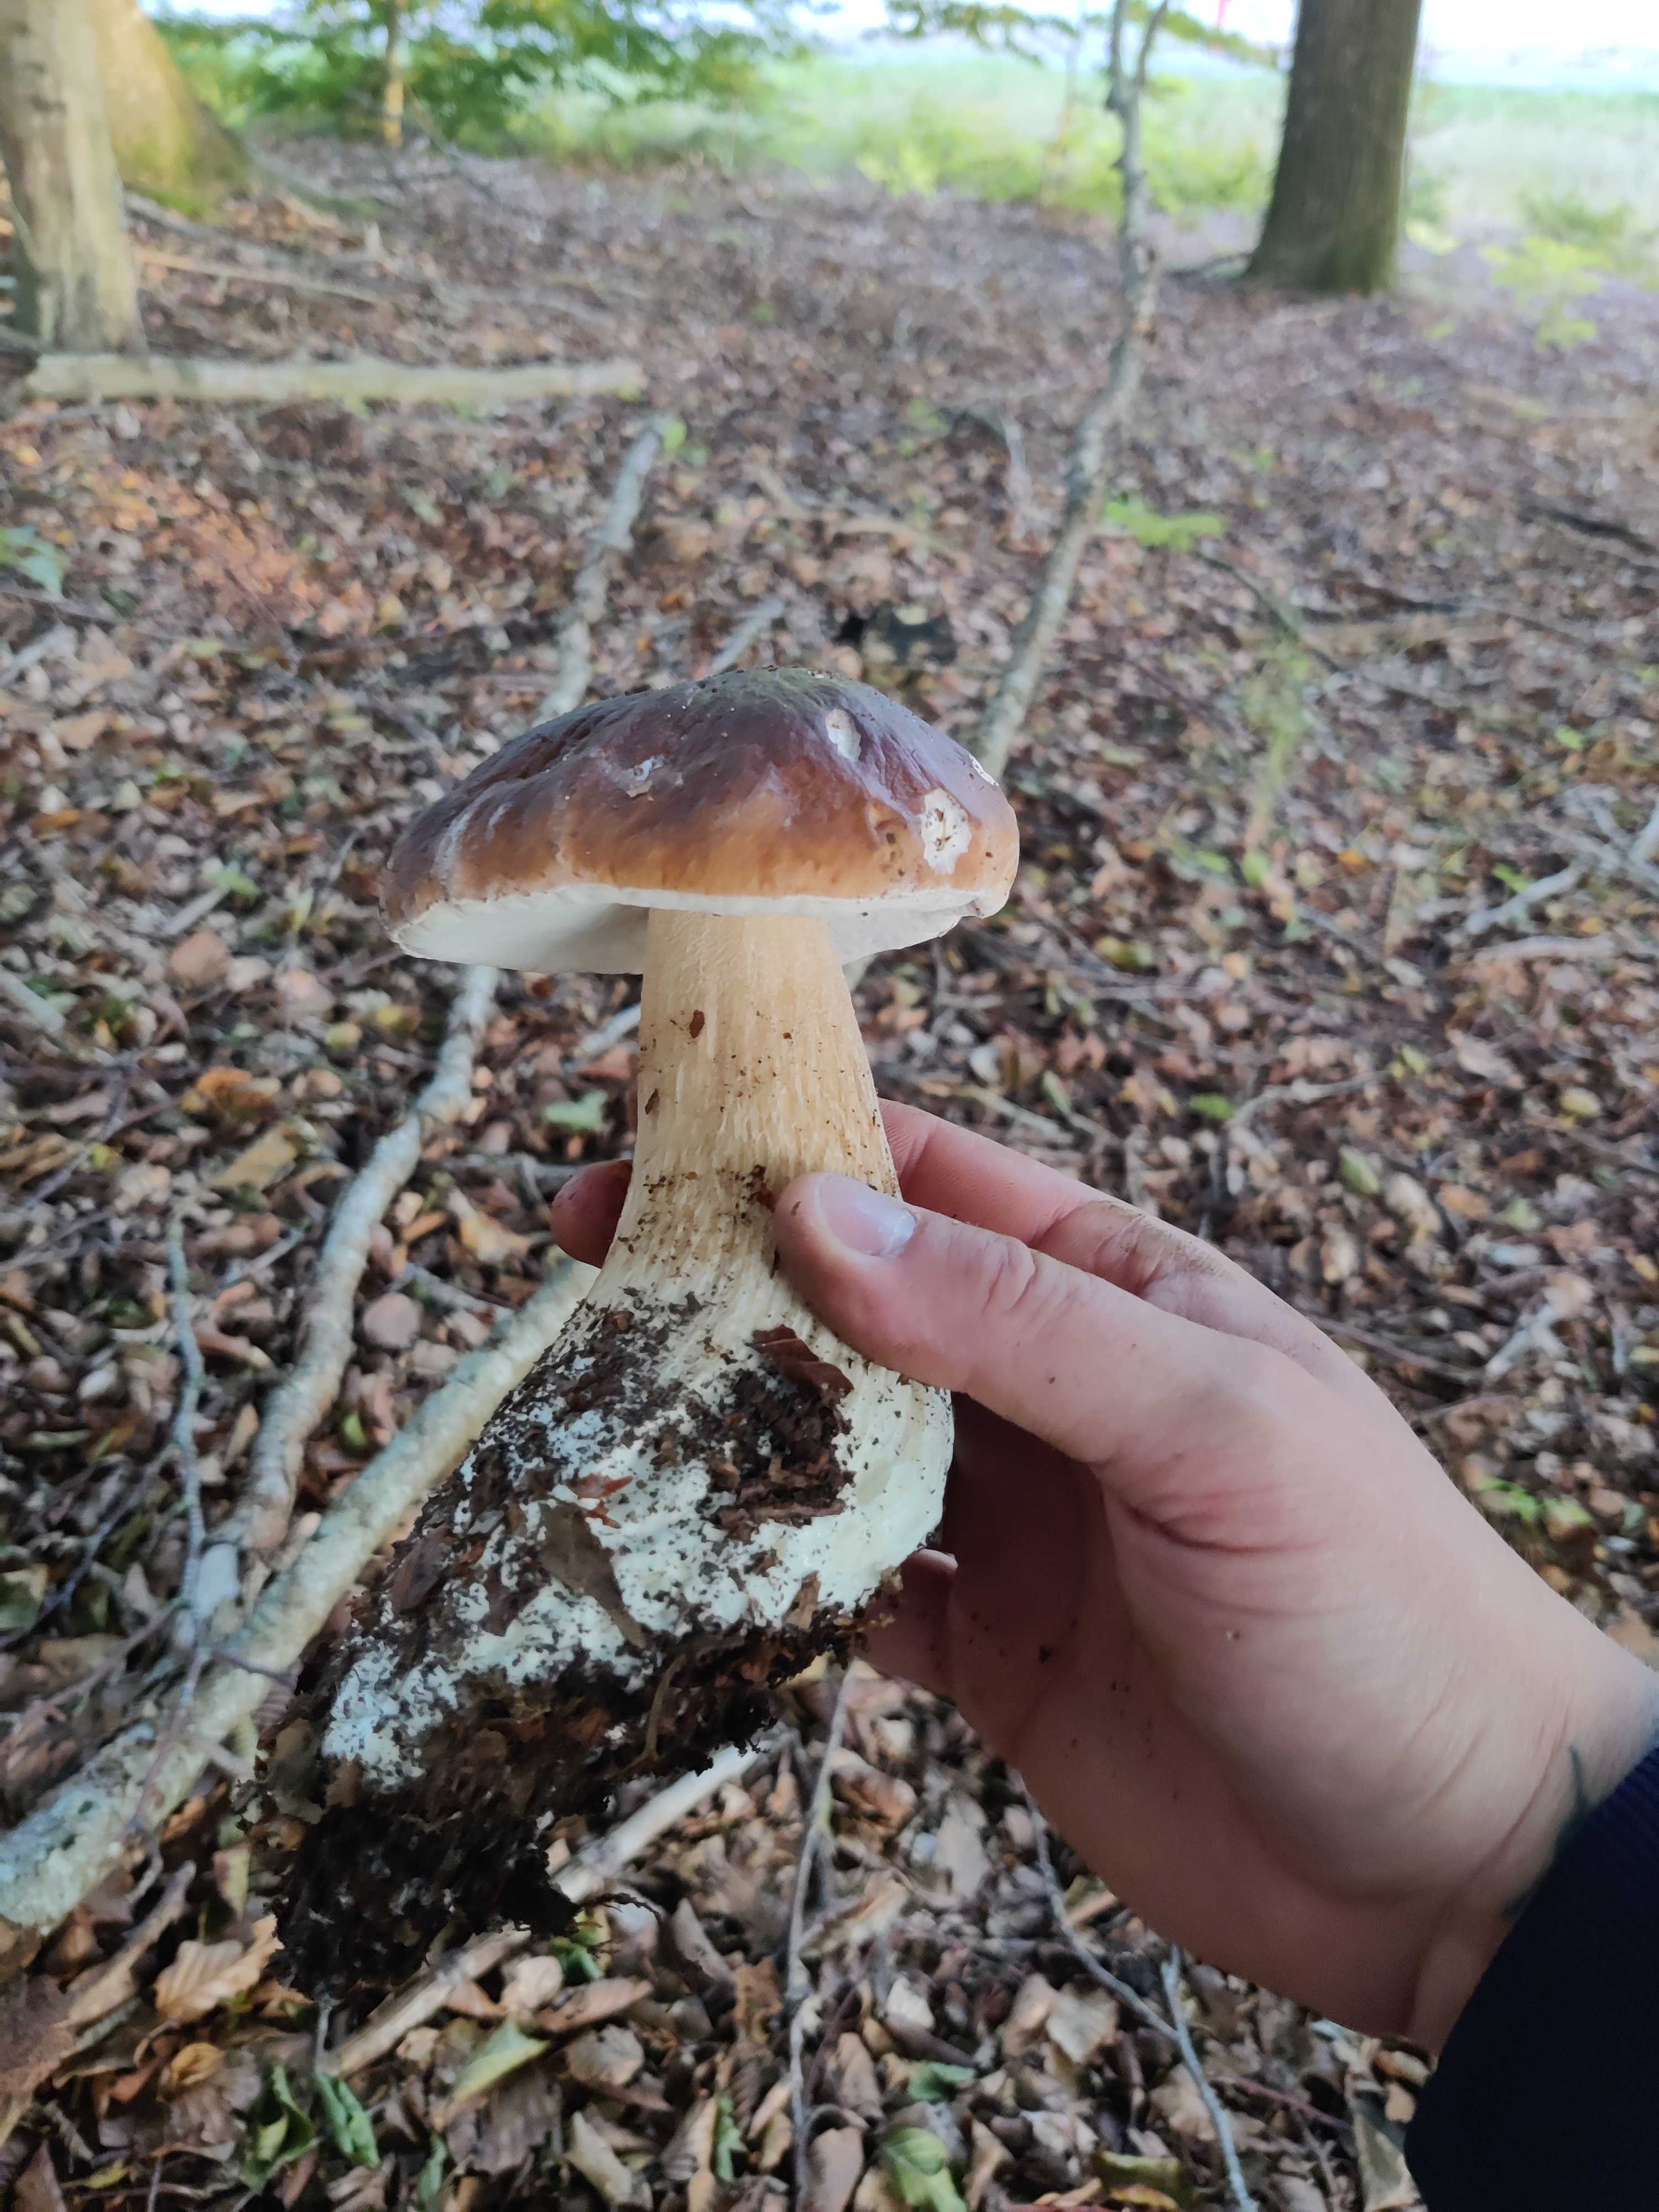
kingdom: Fungi
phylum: Basidiomycota
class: Agaricomycetes
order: Boletales
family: Boletaceae
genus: Boletus
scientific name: Boletus edulis
